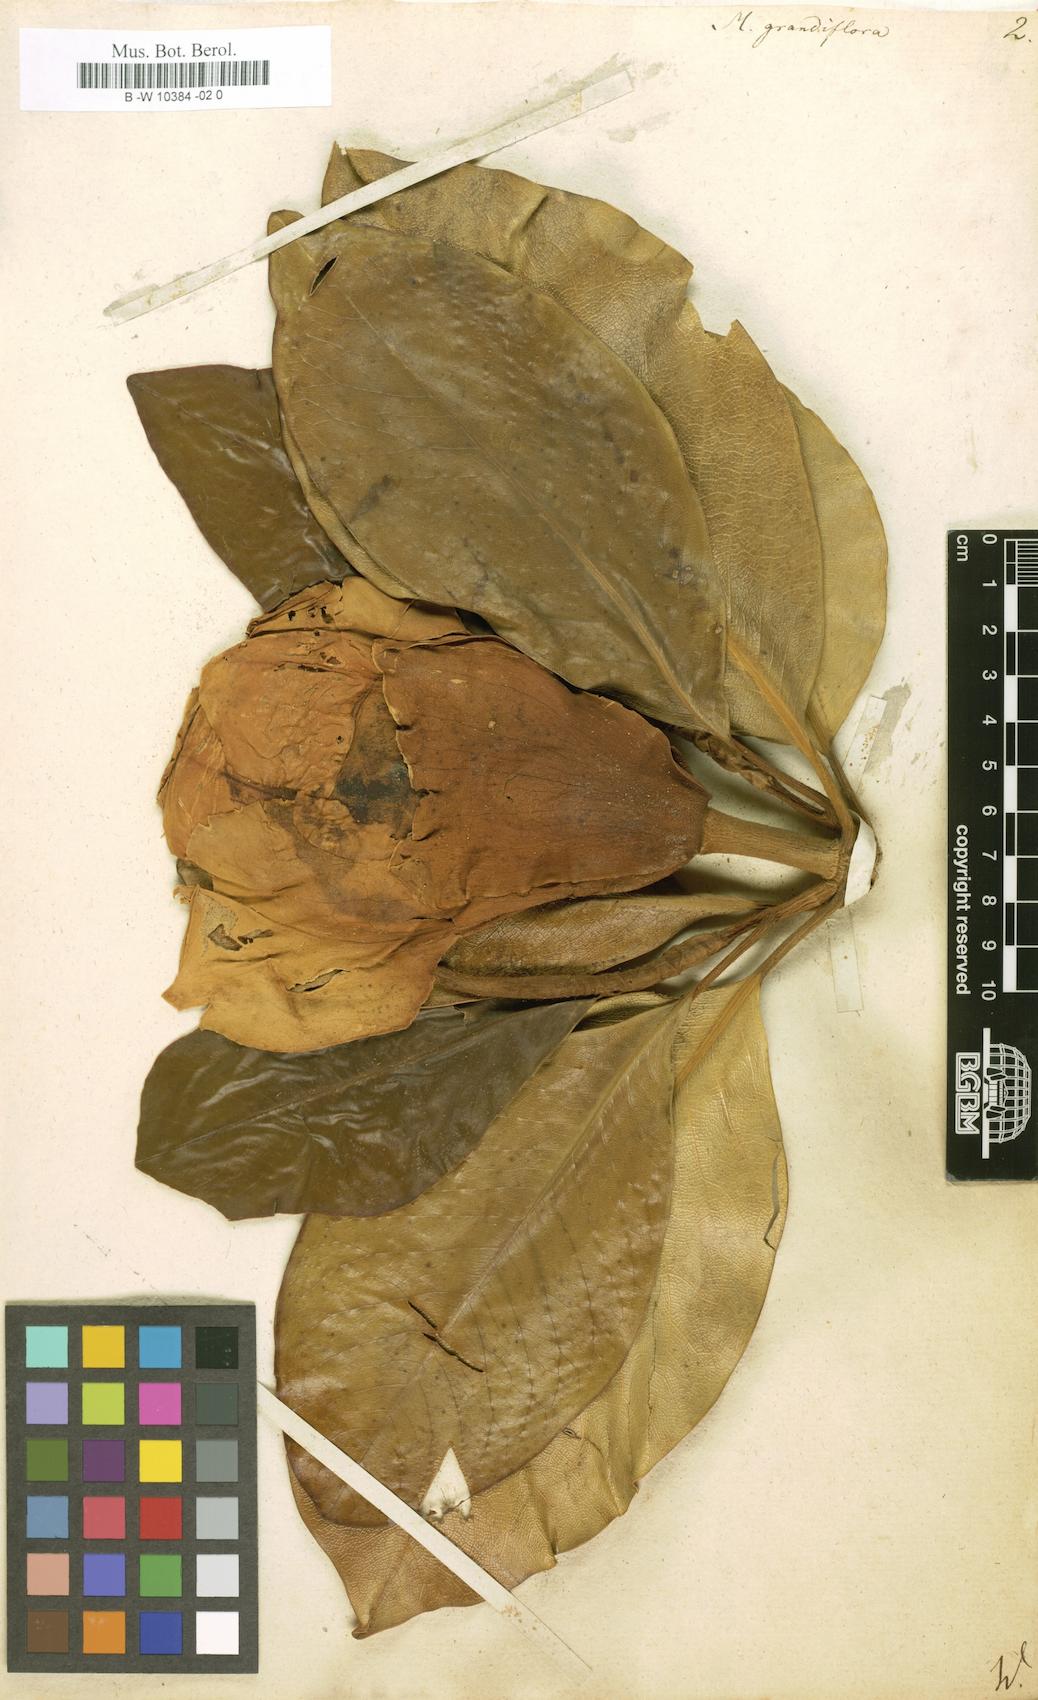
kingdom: Plantae
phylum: Tracheophyta
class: Magnoliopsida
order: Magnoliales
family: Magnoliaceae
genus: Magnolia
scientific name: Magnolia grandiflora
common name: Southern magnolia
